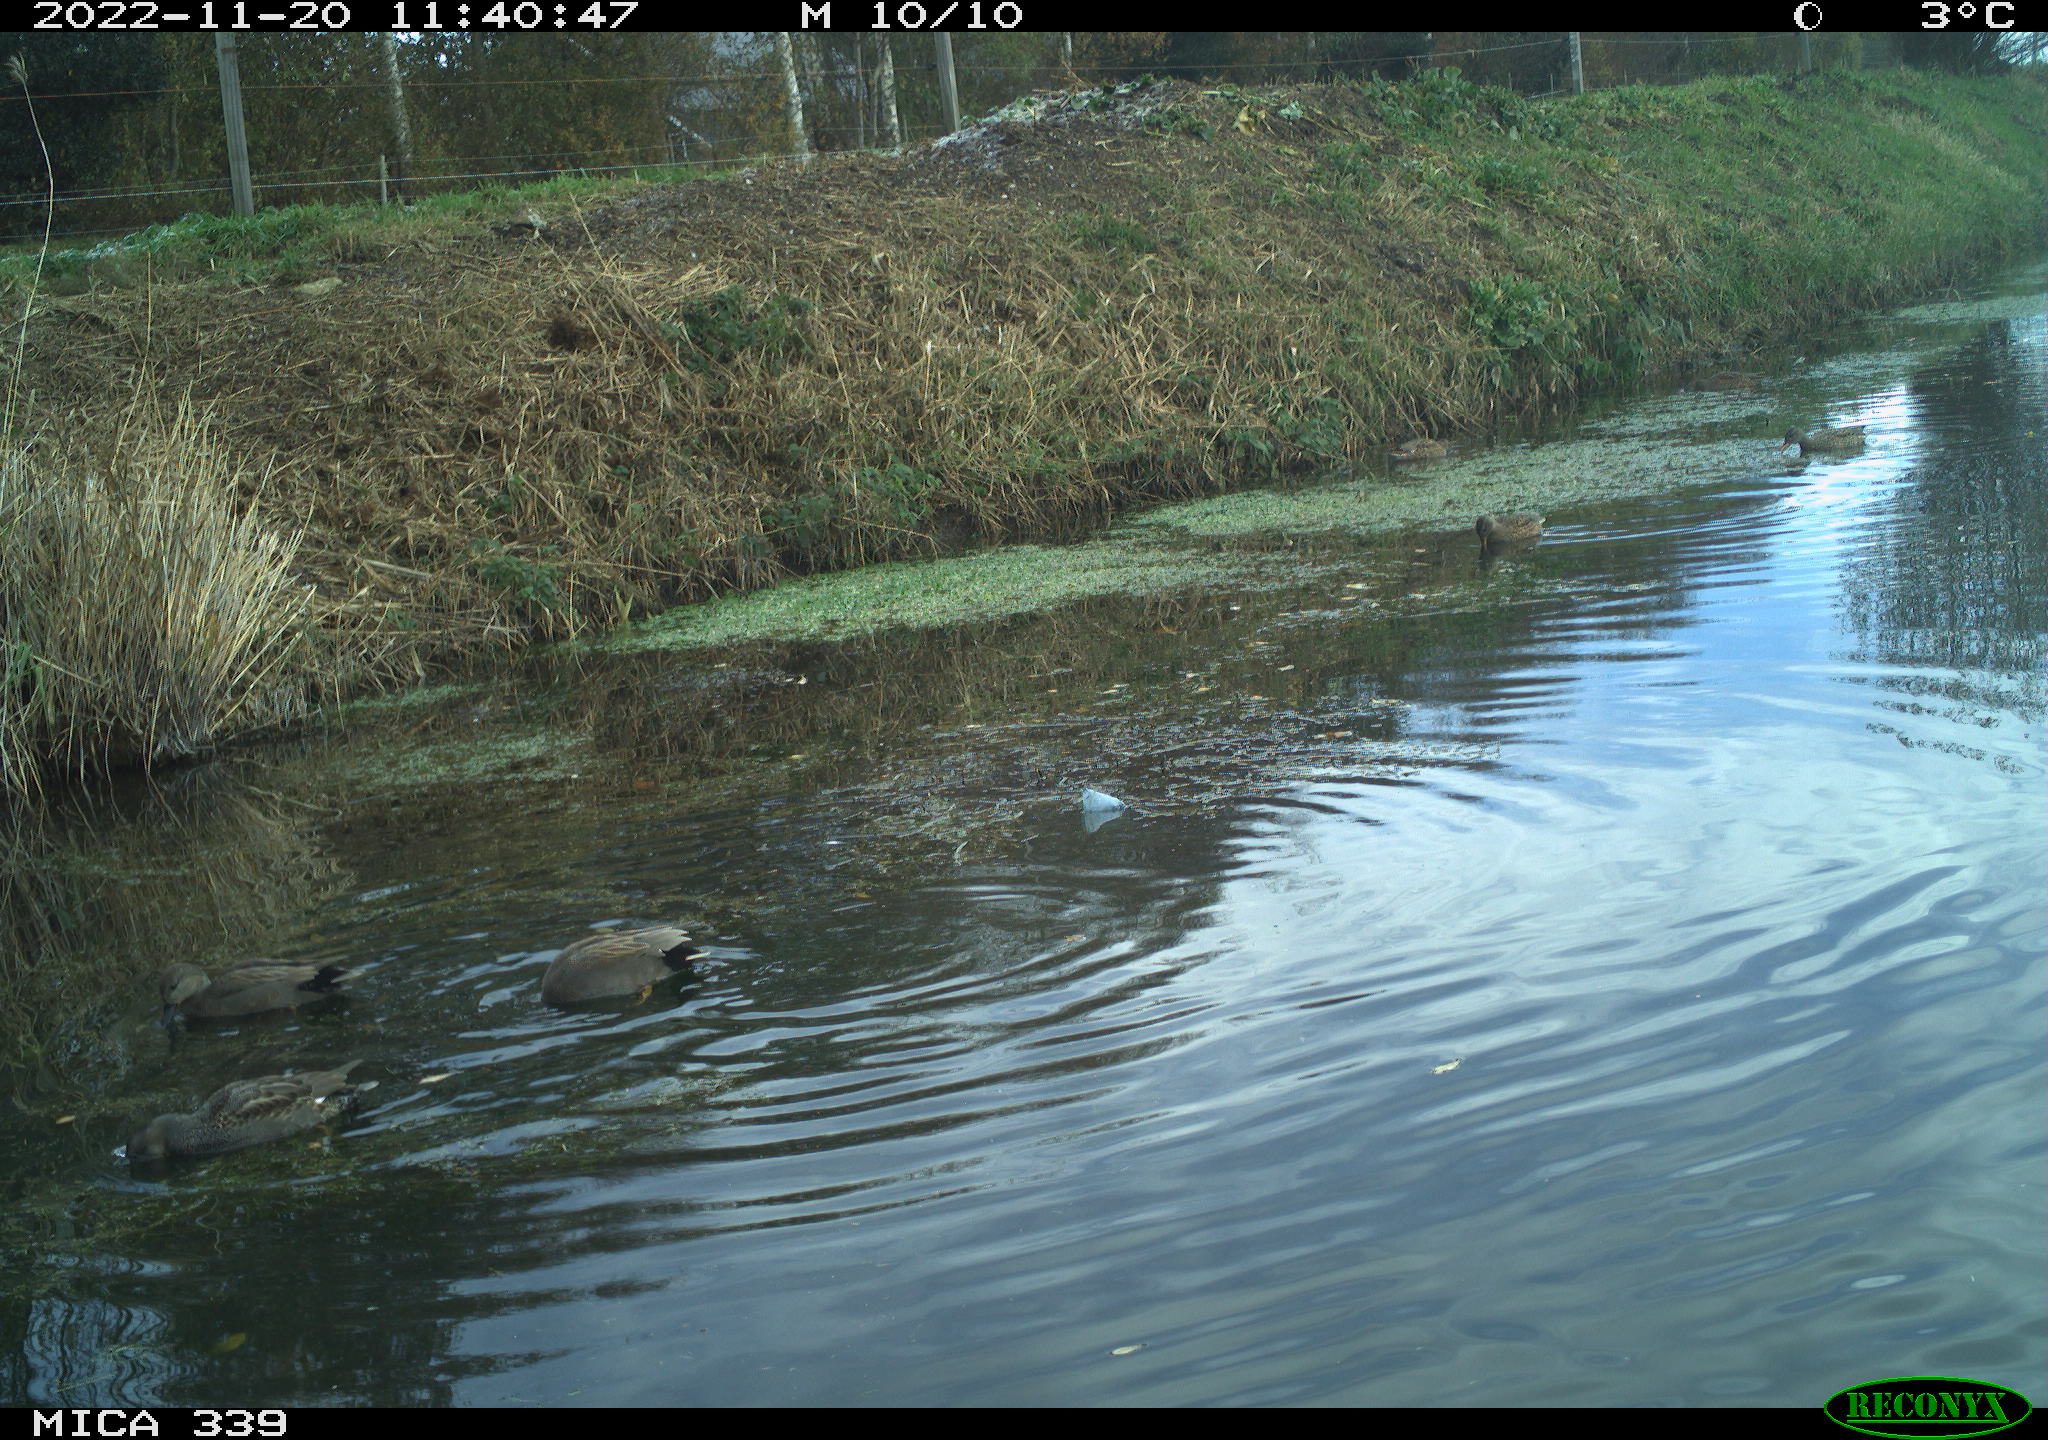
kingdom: Animalia
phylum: Chordata
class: Aves
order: Anseriformes
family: Anatidae
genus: Mareca
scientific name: Mareca strepera
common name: Gadwall
